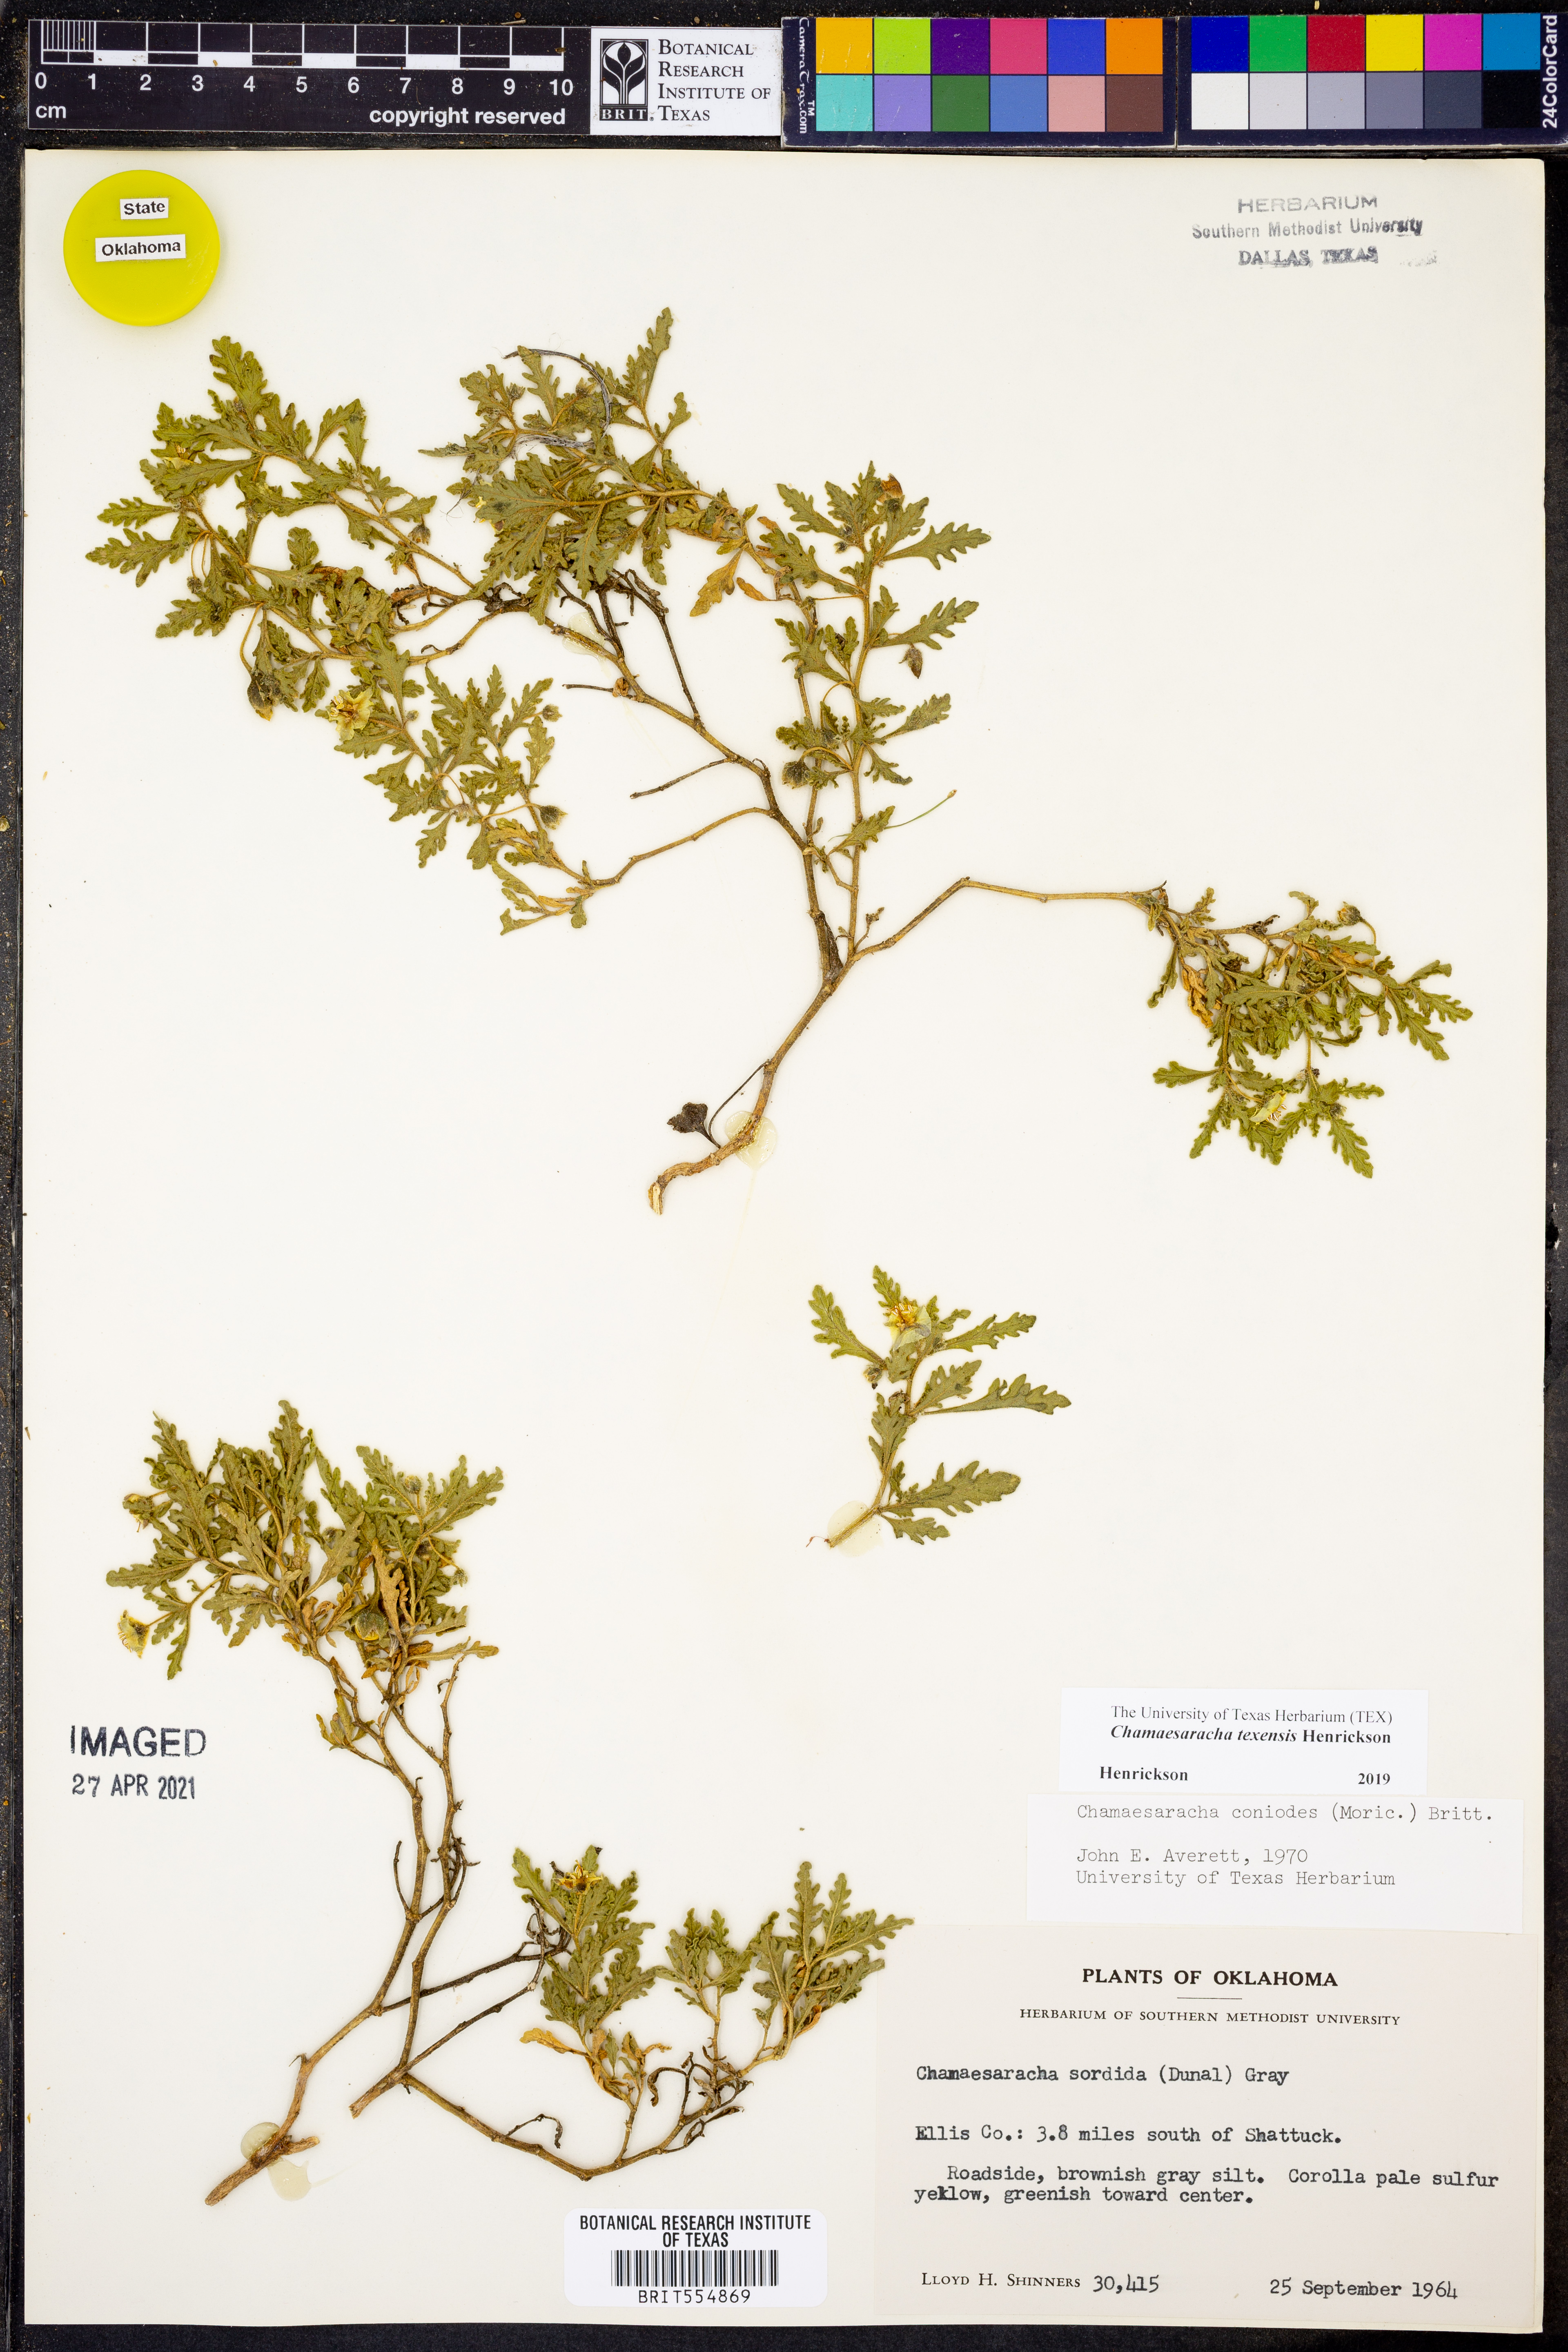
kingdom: Plantae
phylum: Tracheophyta
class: Magnoliopsida
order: Solanales
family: Solanaceae
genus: Chamaesaracha
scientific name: Chamaesaracha texensis
